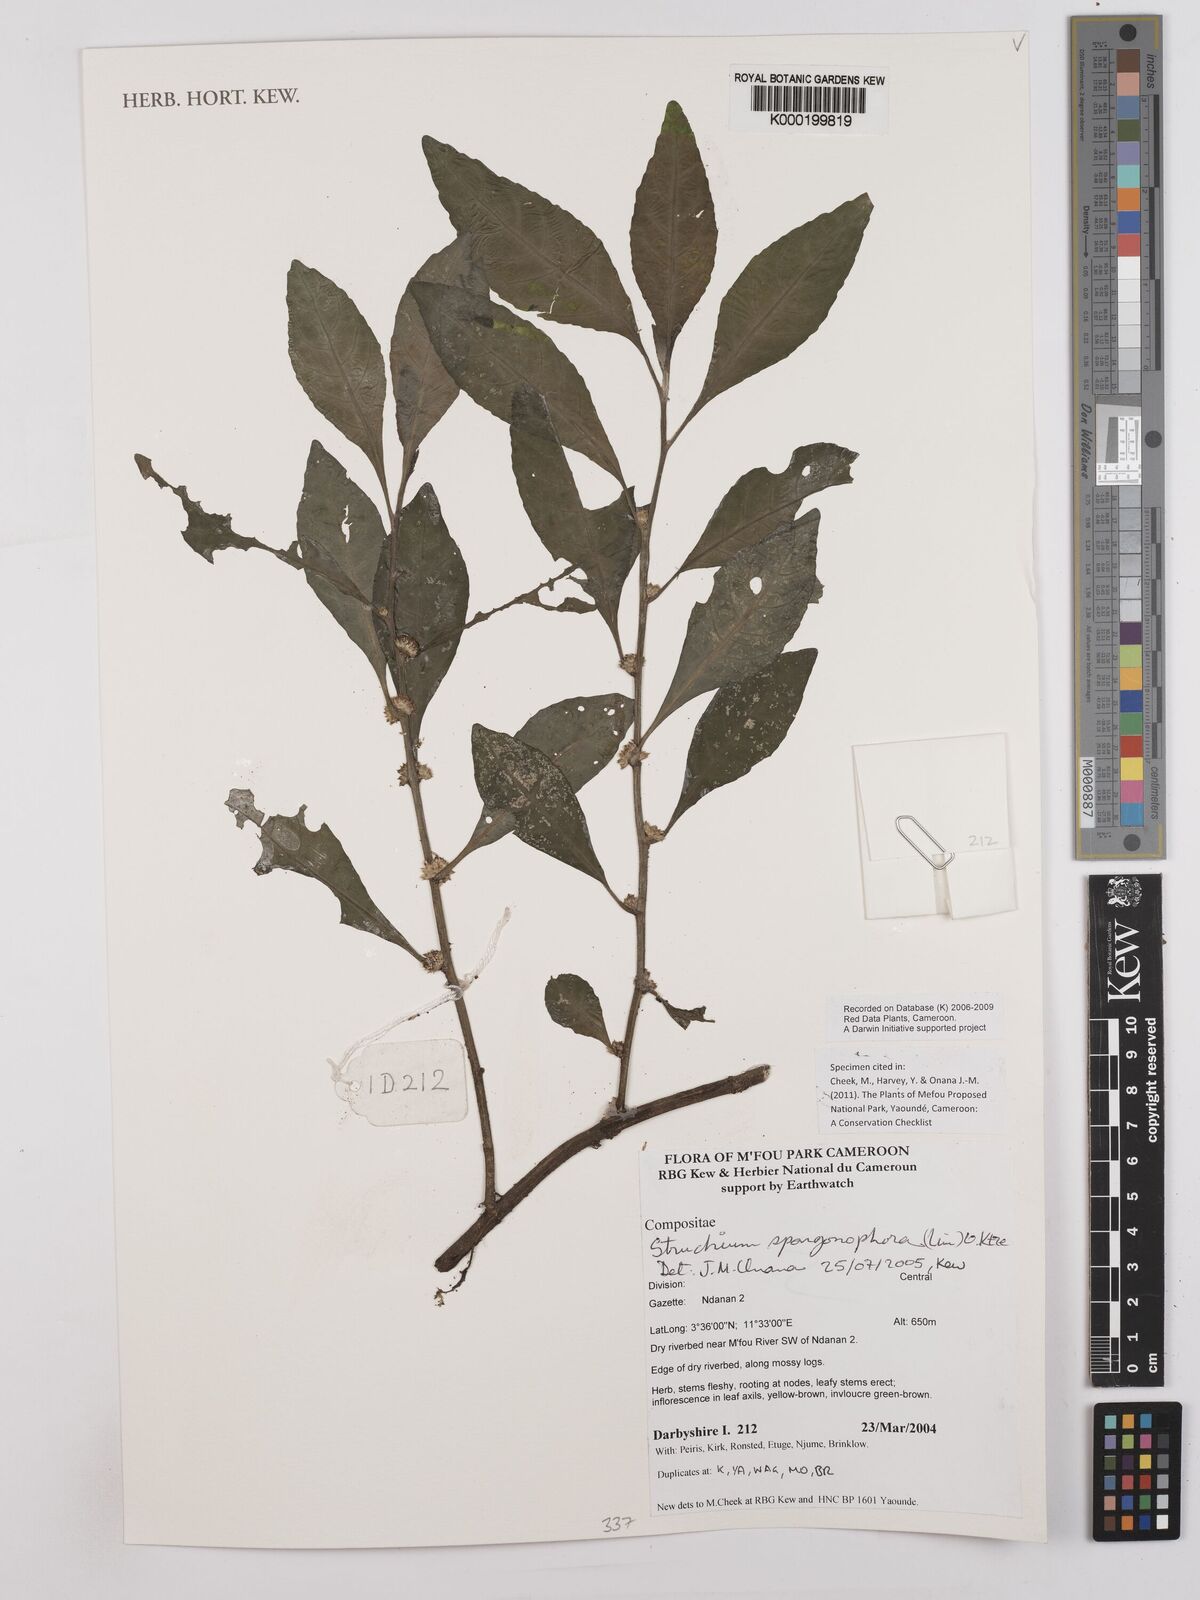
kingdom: Plantae
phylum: Tracheophyta
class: Magnoliopsida
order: Asterales
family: Asteraceae
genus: Struchium
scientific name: Struchium sparganophorum
